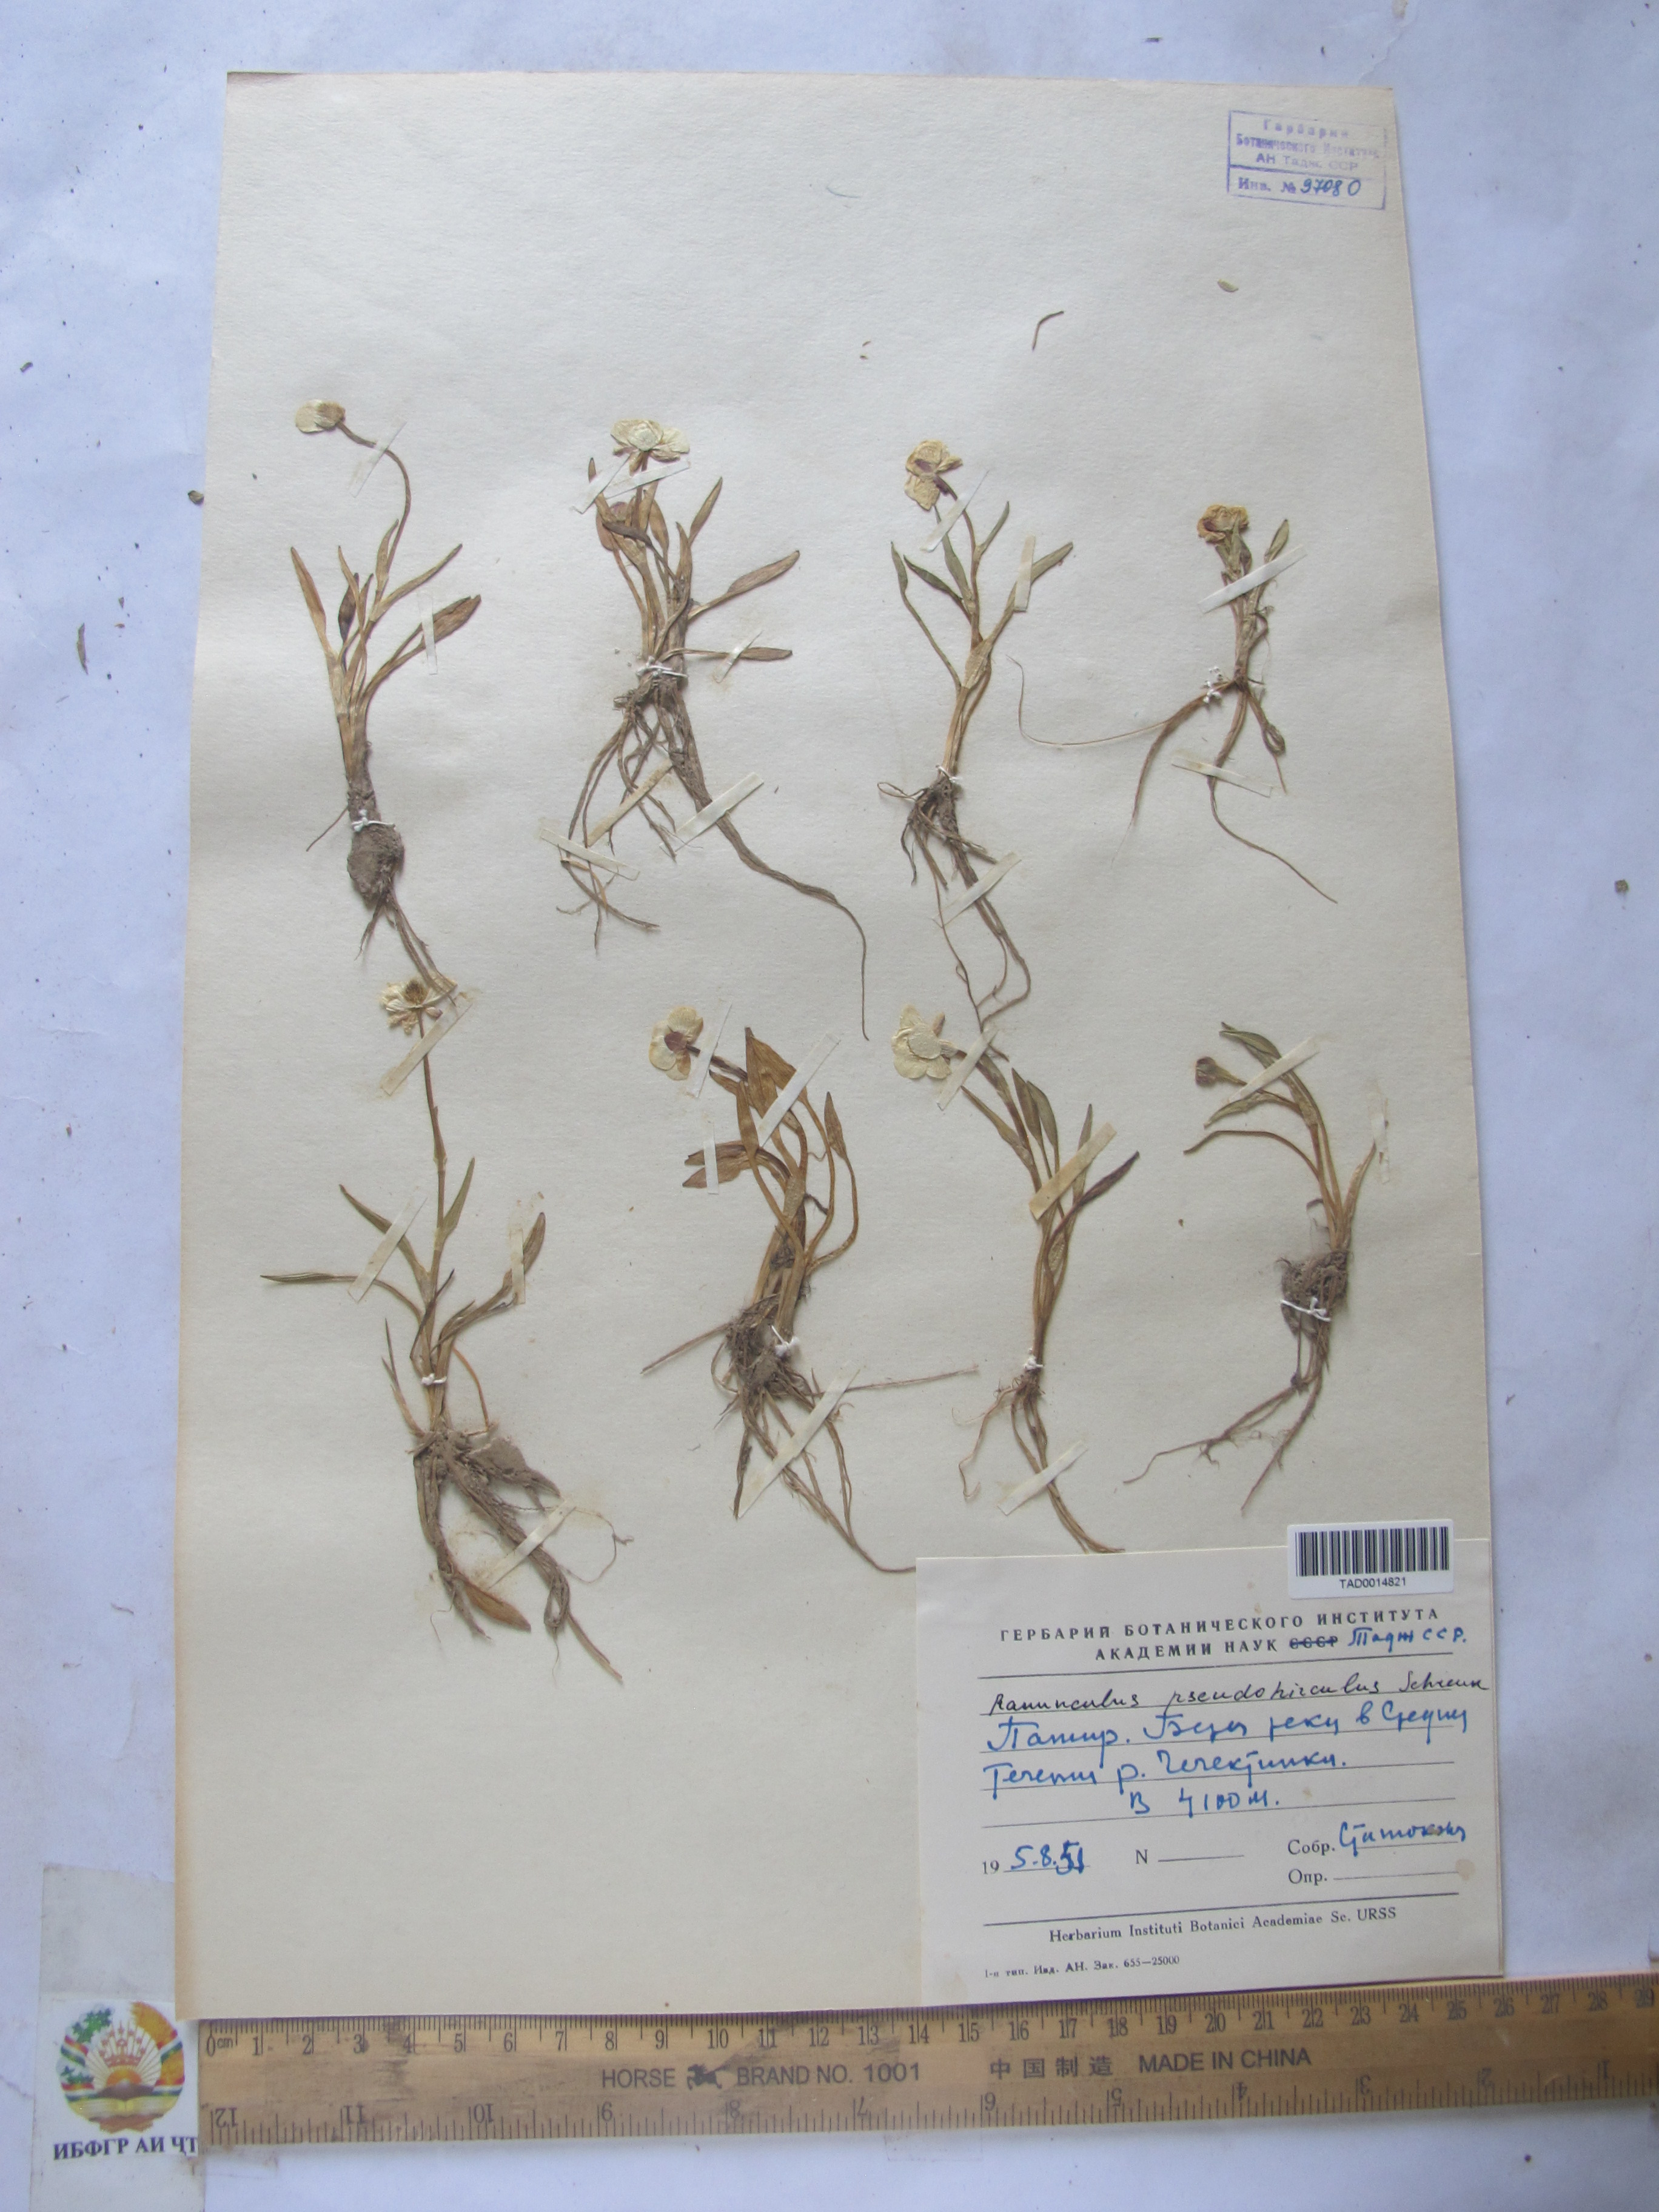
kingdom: Plantae
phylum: Tracheophyta
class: Magnoliopsida
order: Ranunculales
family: Ranunculaceae
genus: Ranunculus
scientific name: Ranunculus pseudohirculus
